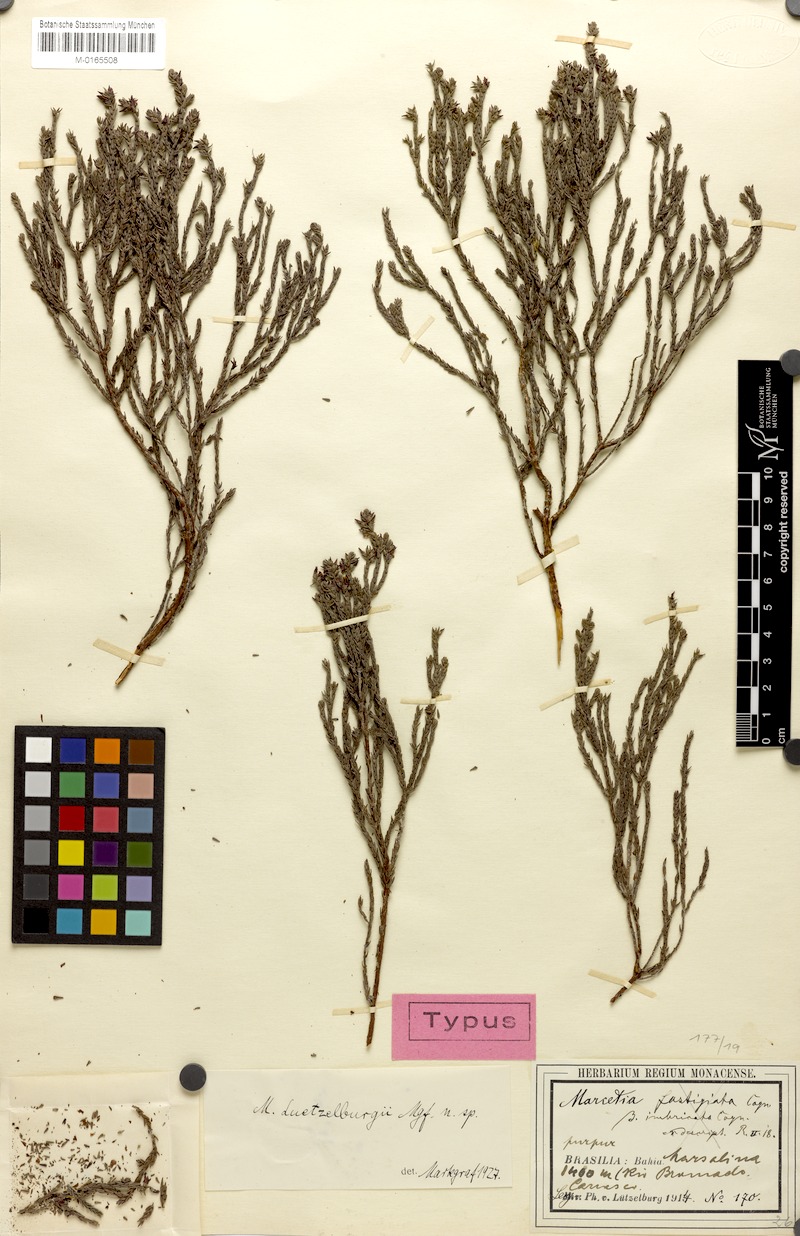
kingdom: Plantae
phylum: Tracheophyta
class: Magnoliopsida
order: Myrtales
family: Melastomataceae
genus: Marcetia
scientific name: Marcetia luetzelburgii
